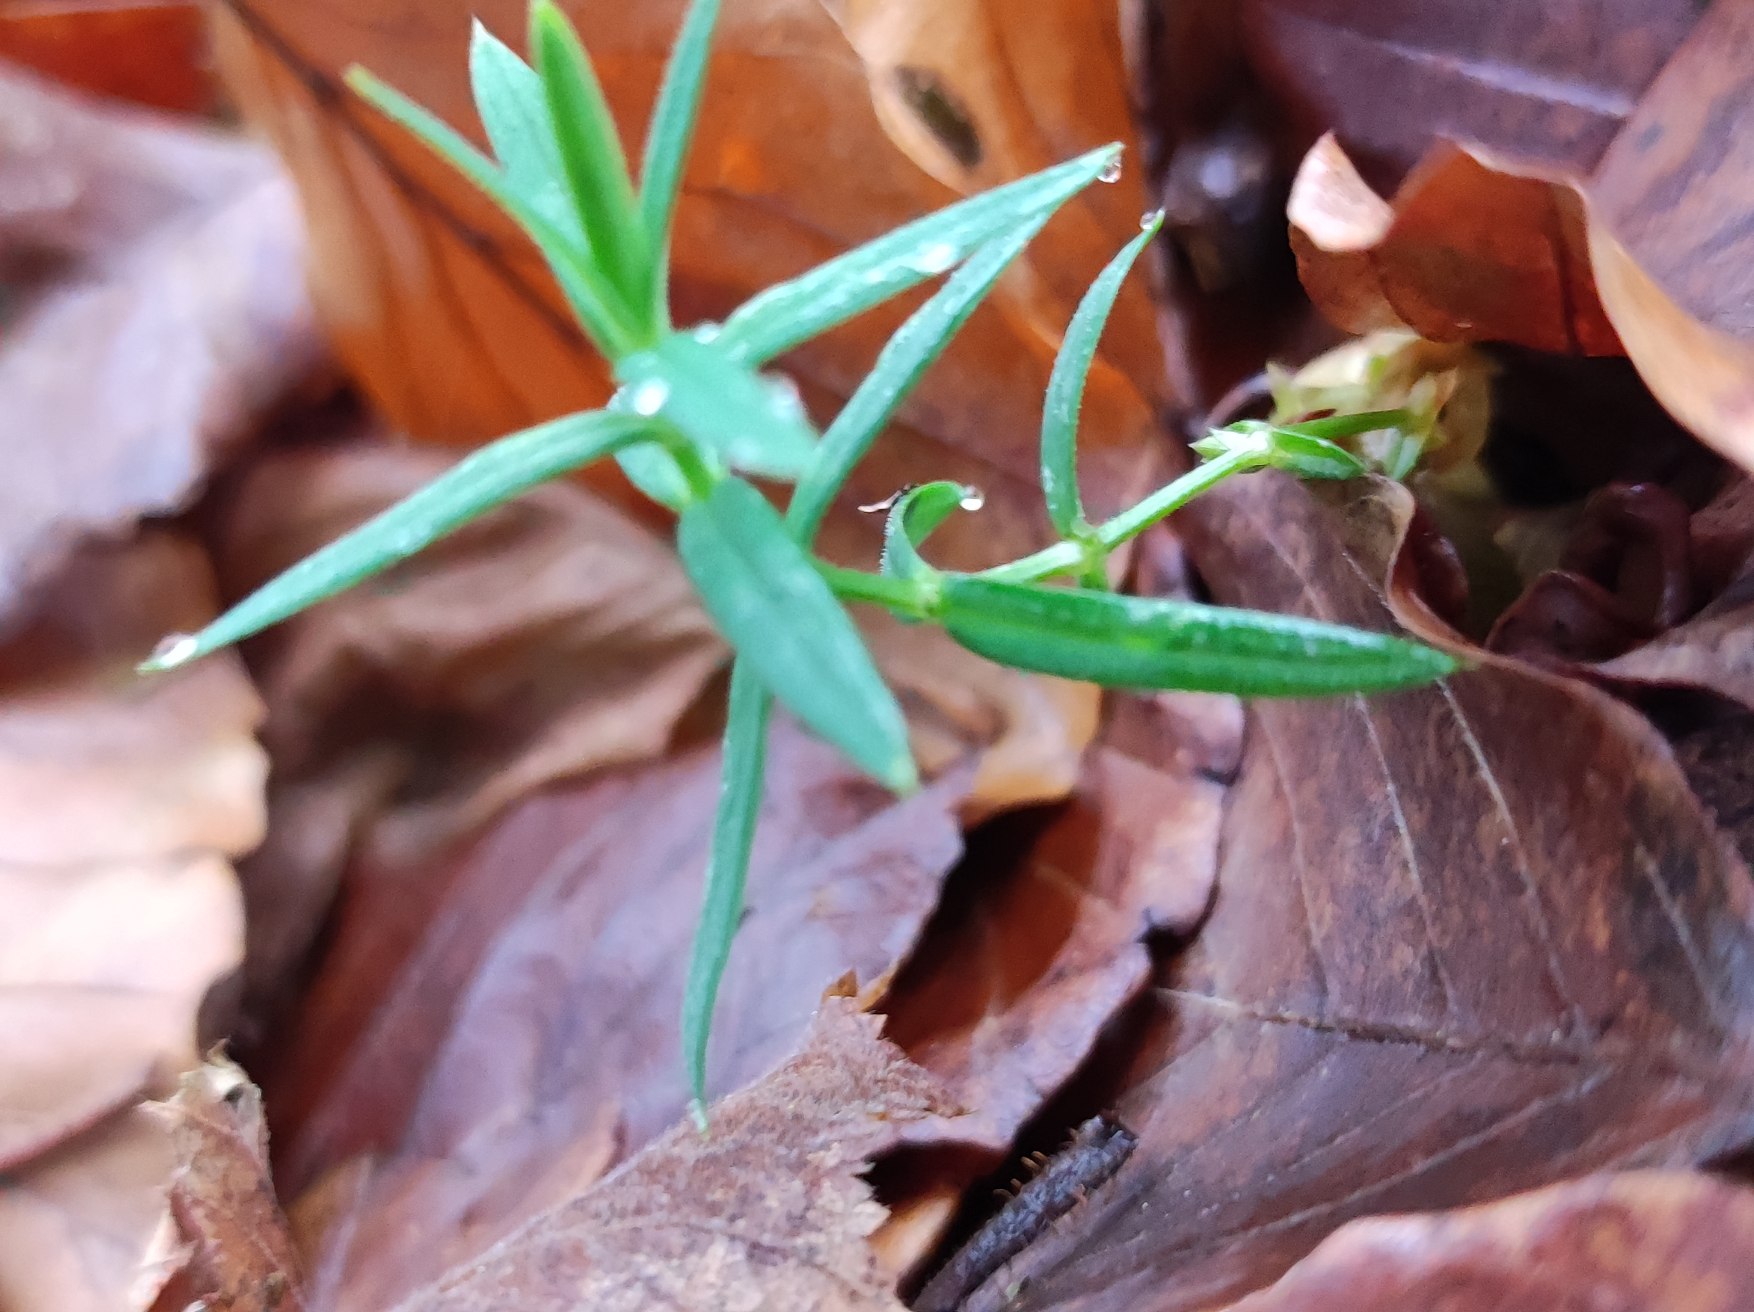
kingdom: Plantae
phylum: Tracheophyta
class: Magnoliopsida
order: Caryophyllales
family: Caryophyllaceae
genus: Rabelera
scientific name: Rabelera holostea
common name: Stor fladstjerne
